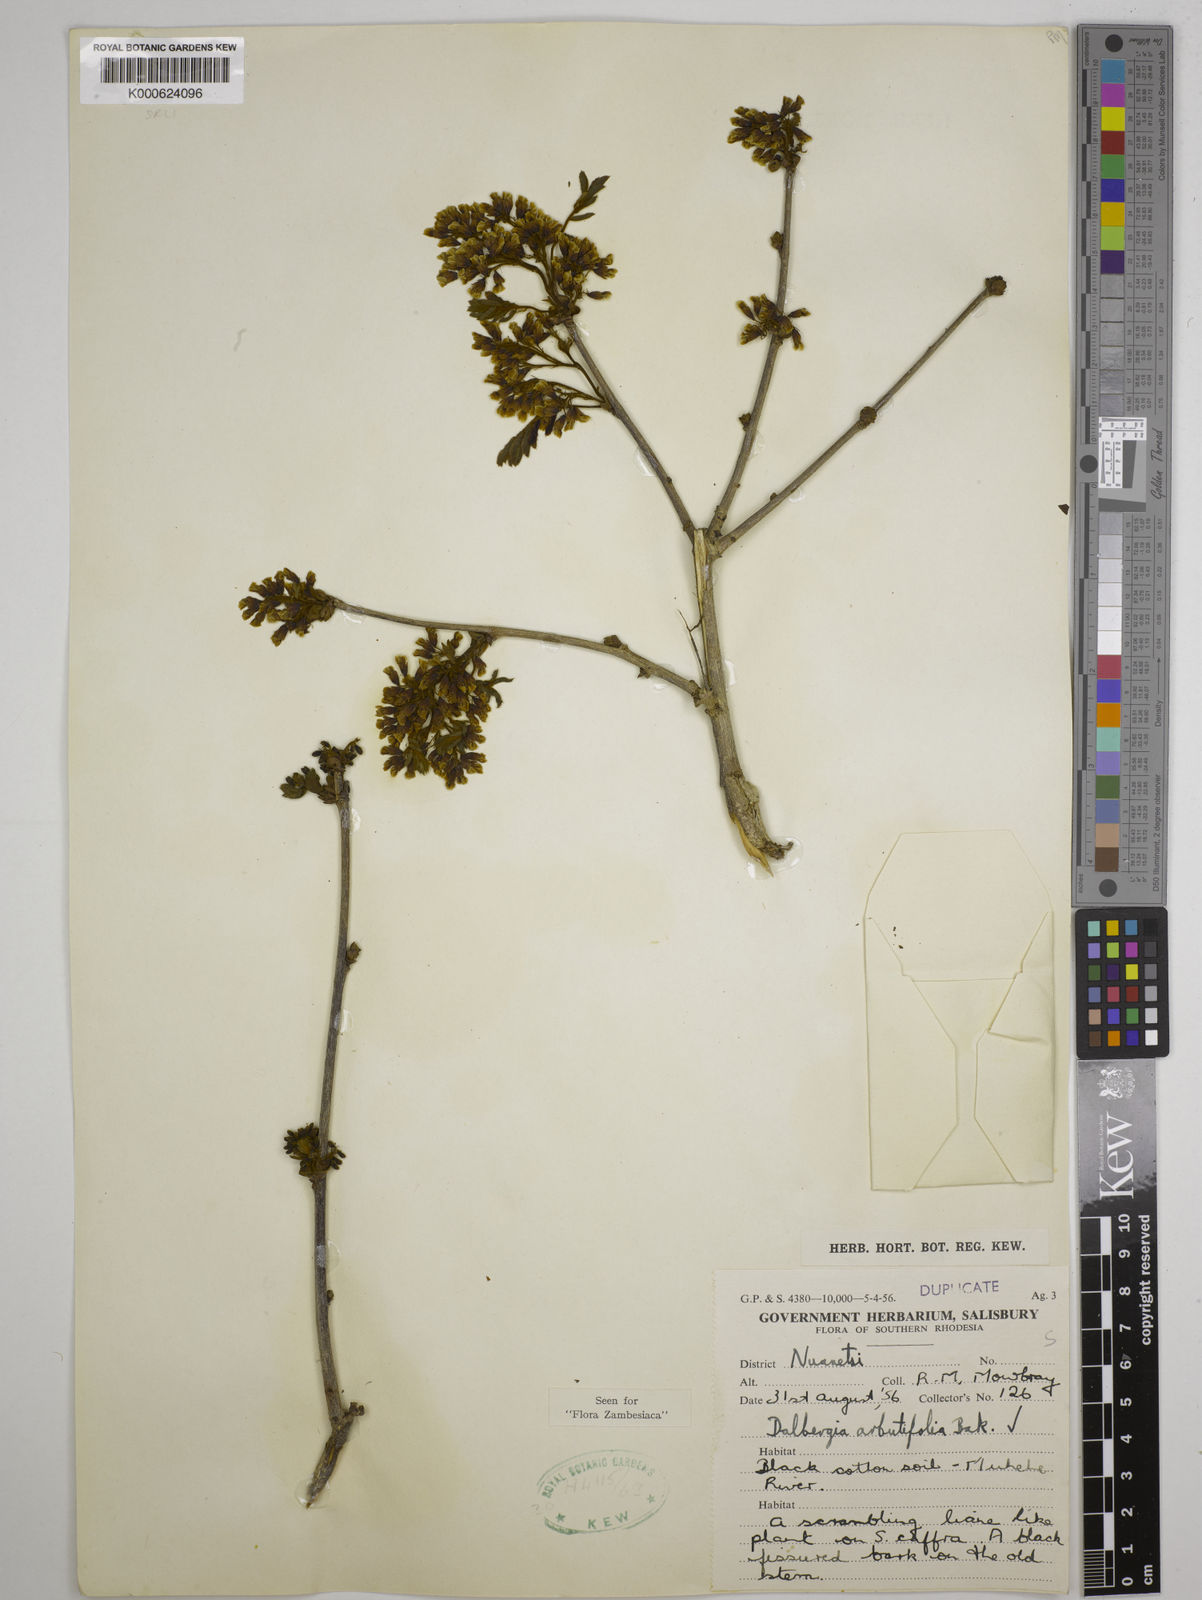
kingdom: Plantae
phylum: Tracheophyta
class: Magnoliopsida
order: Fabales
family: Fabaceae
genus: Dalbergia
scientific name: Dalbergia arbutifolia
